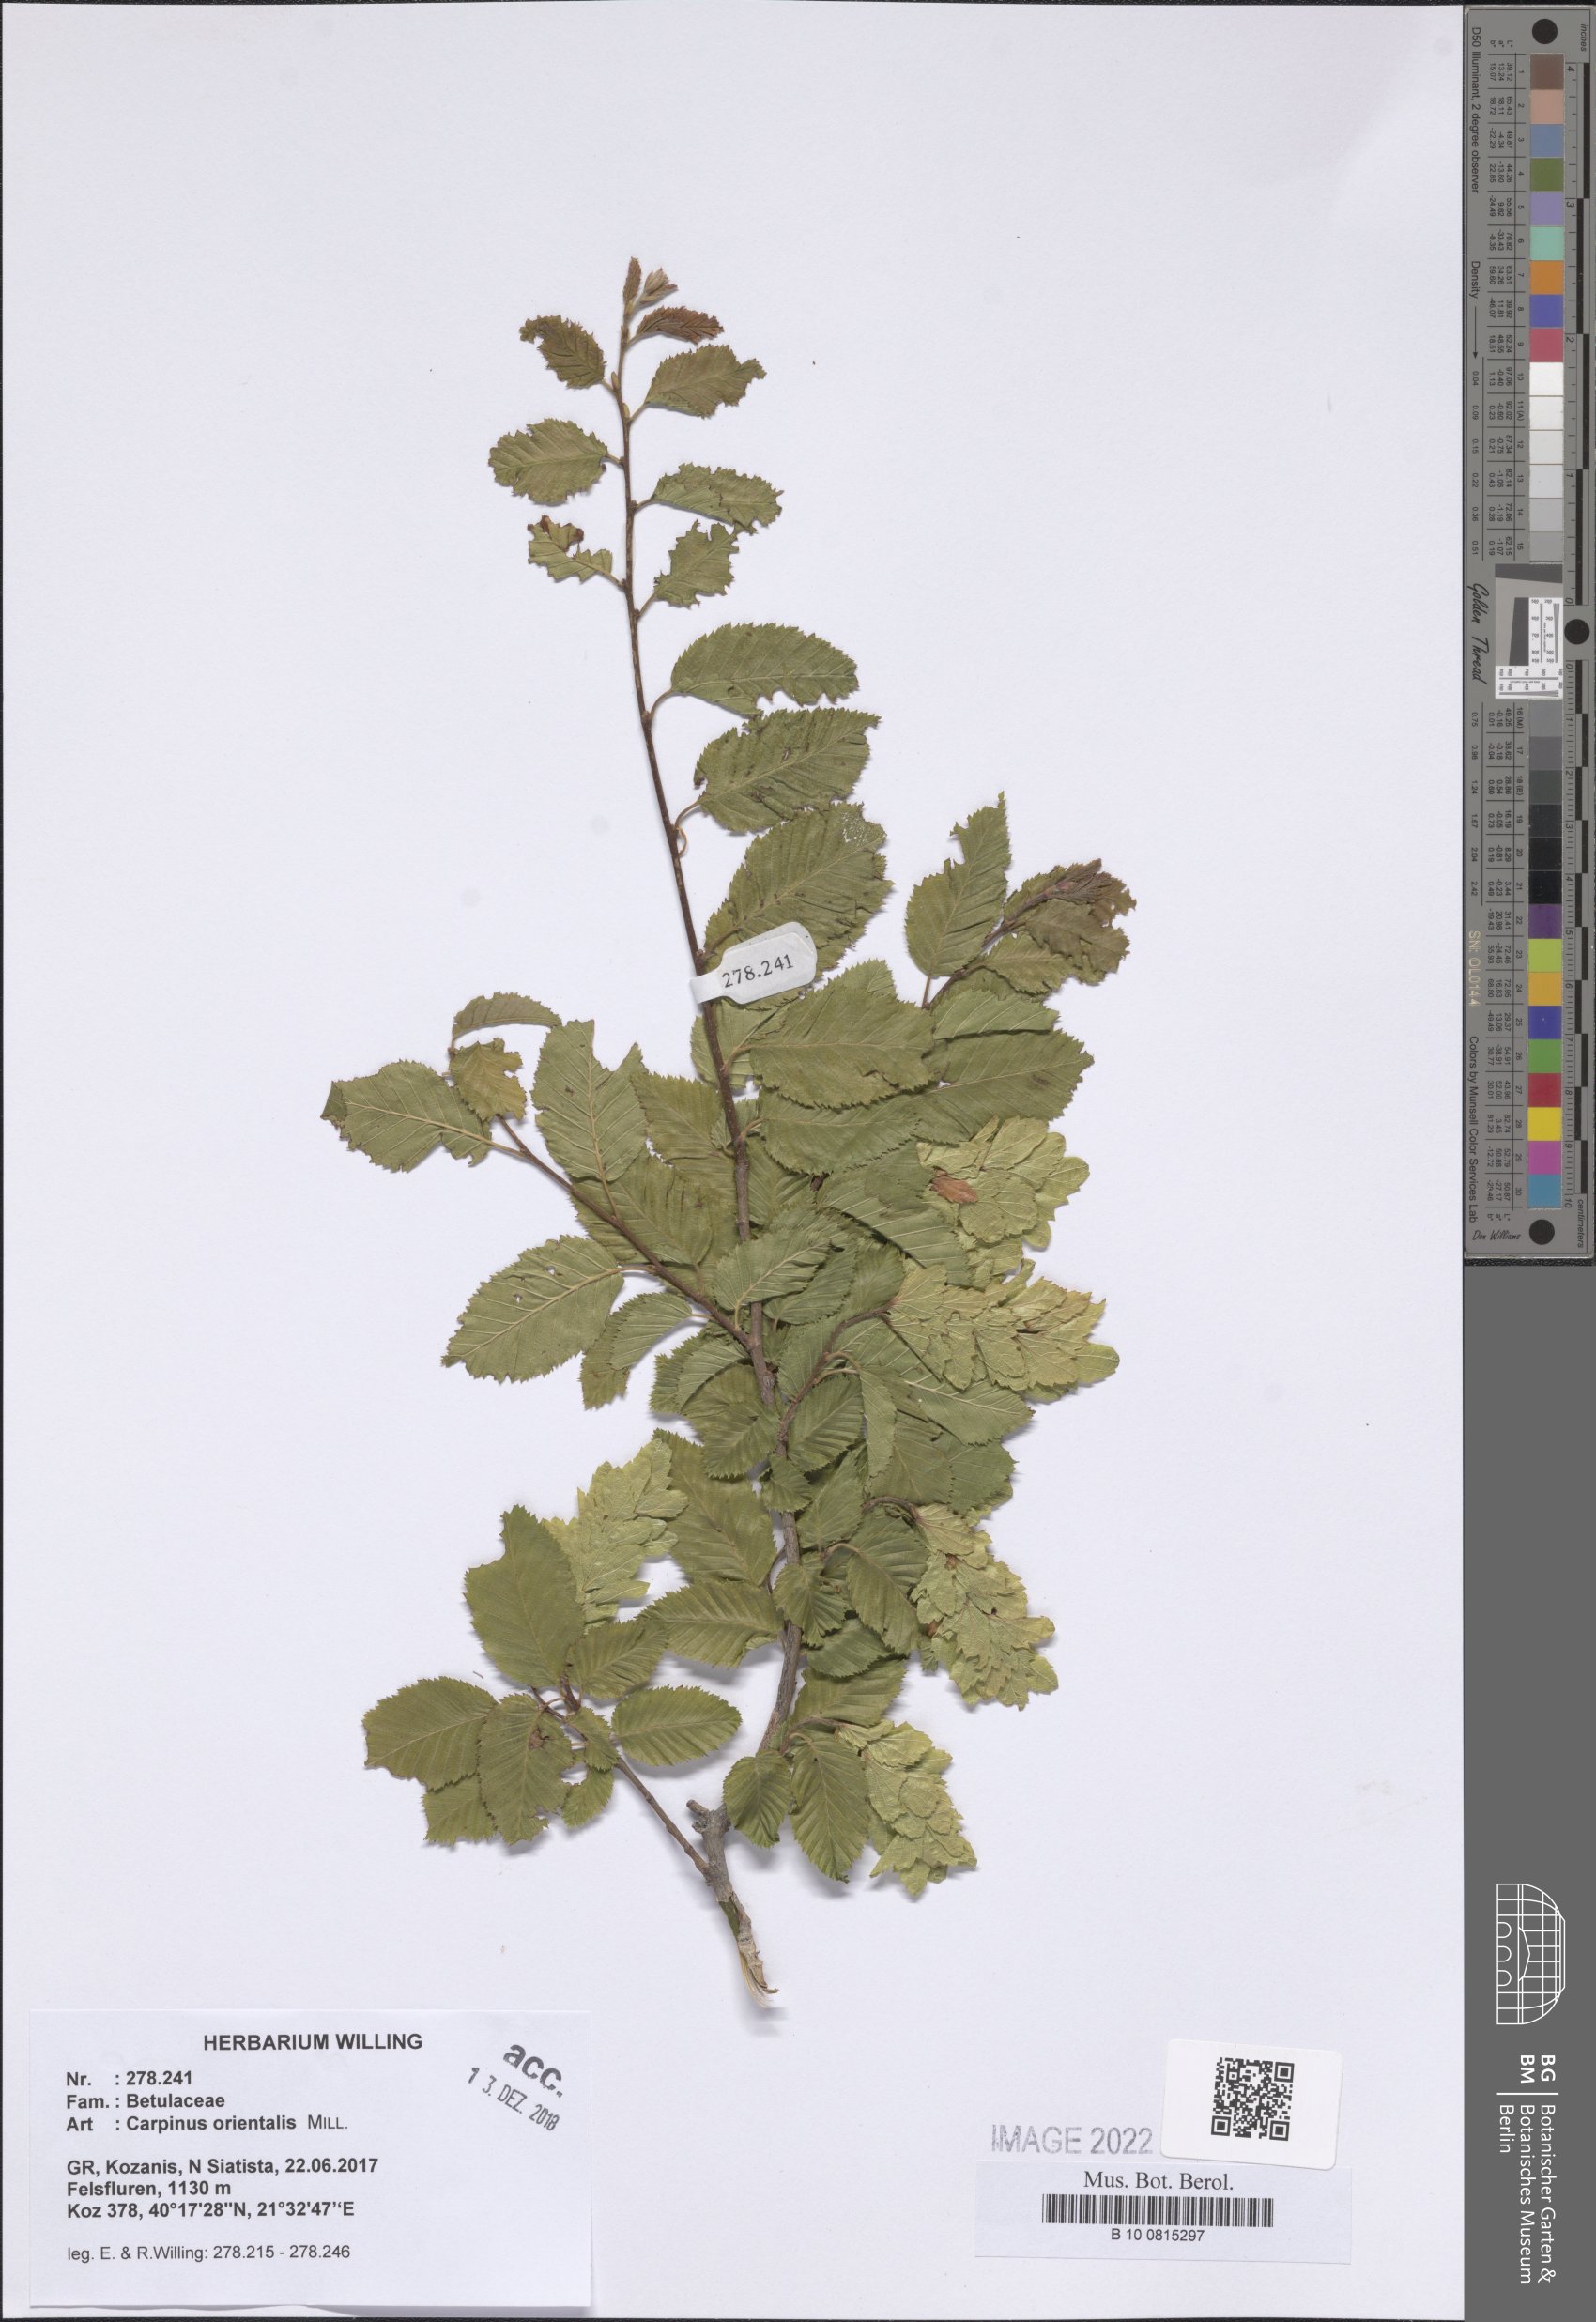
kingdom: Plantae
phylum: Tracheophyta
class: Magnoliopsida
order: Fagales
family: Betulaceae
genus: Carpinus
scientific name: Carpinus orientalis
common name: Eastern hornbeam
